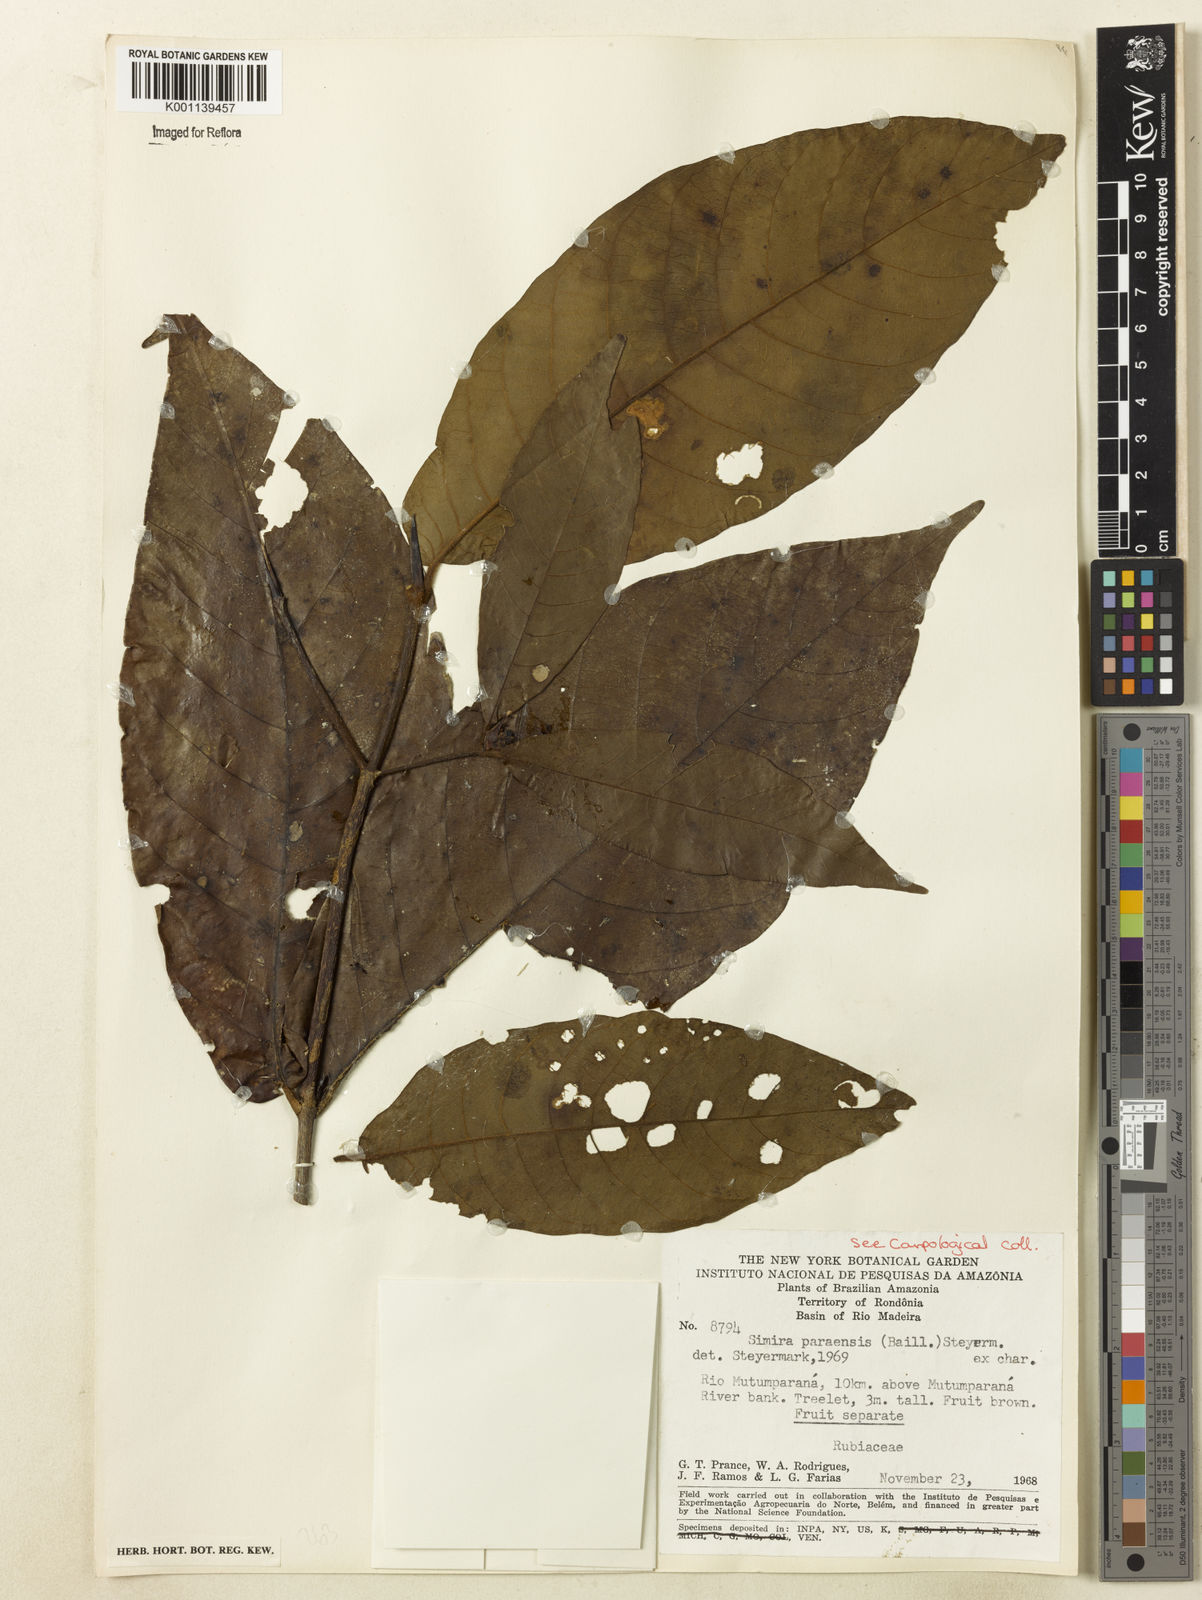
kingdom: Plantae
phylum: Tracheophyta
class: Magnoliopsida
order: Gentianales
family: Rubiaceae
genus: Simira
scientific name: Simira paraensis
